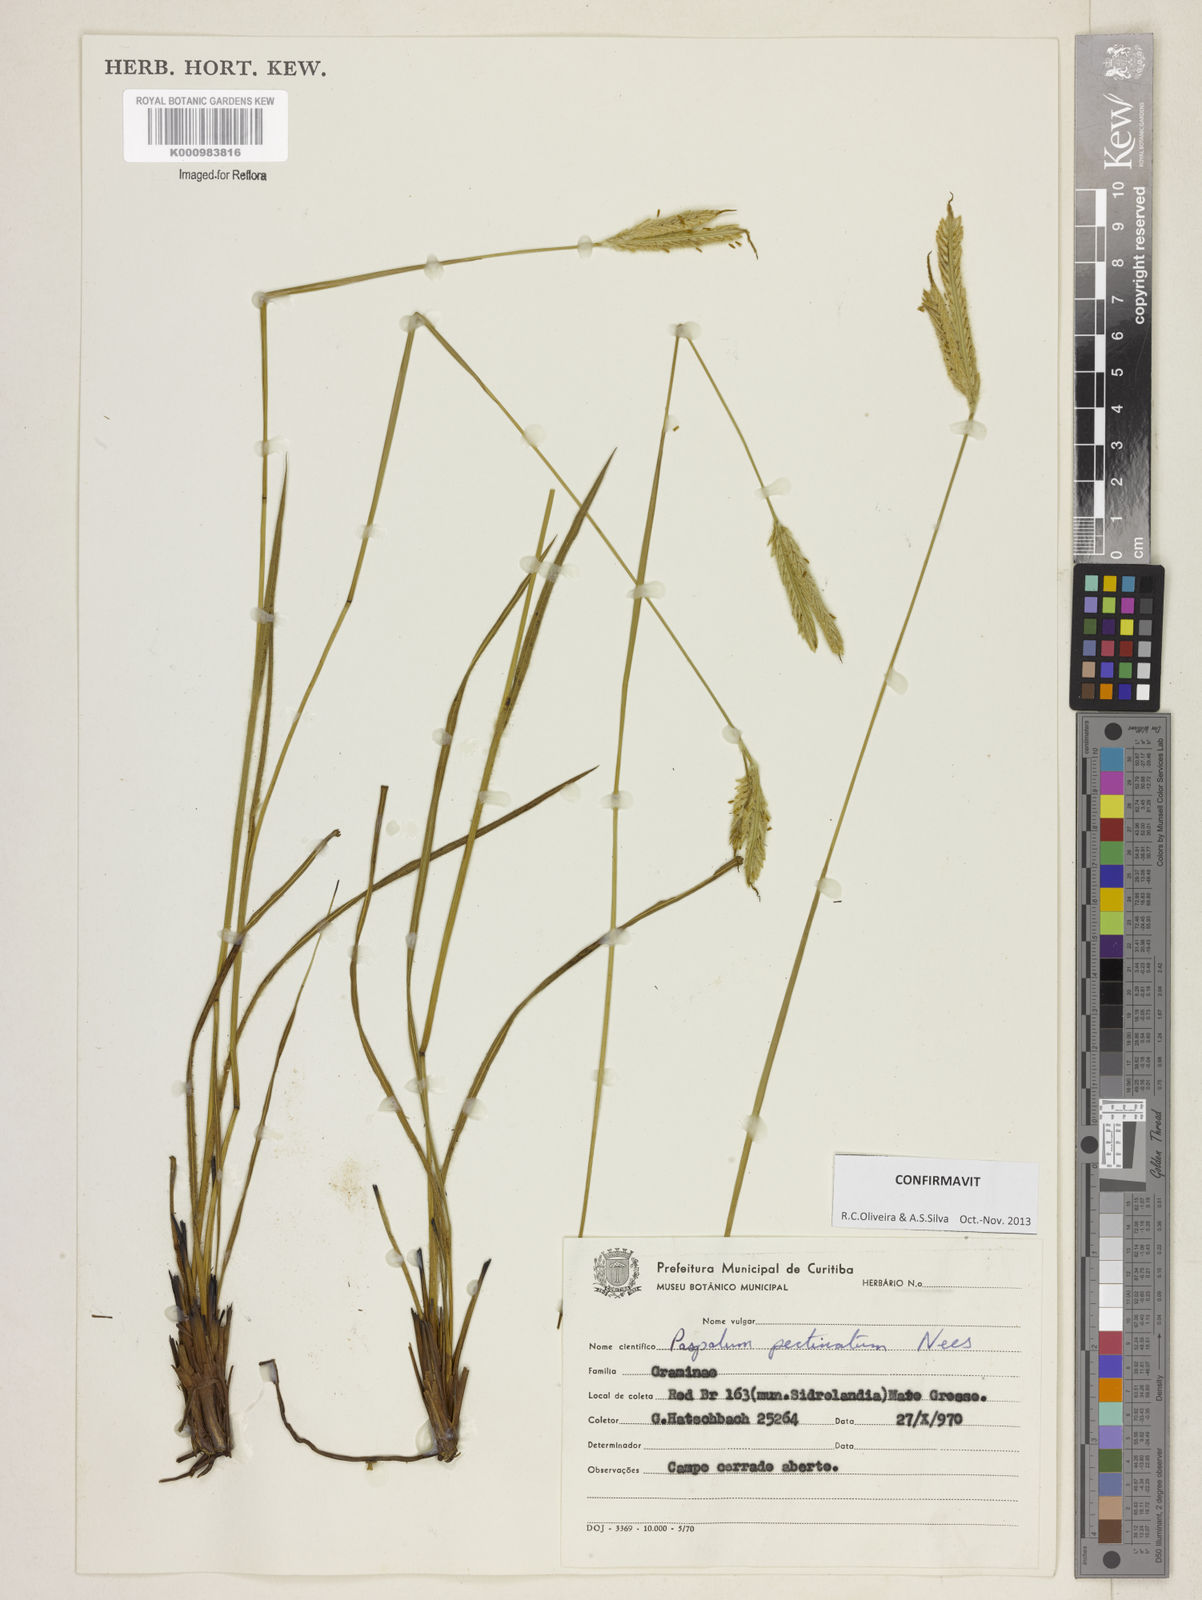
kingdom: Plantae
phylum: Tracheophyta
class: Liliopsida
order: Poales
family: Poaceae
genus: Paspalum
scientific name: Paspalum
